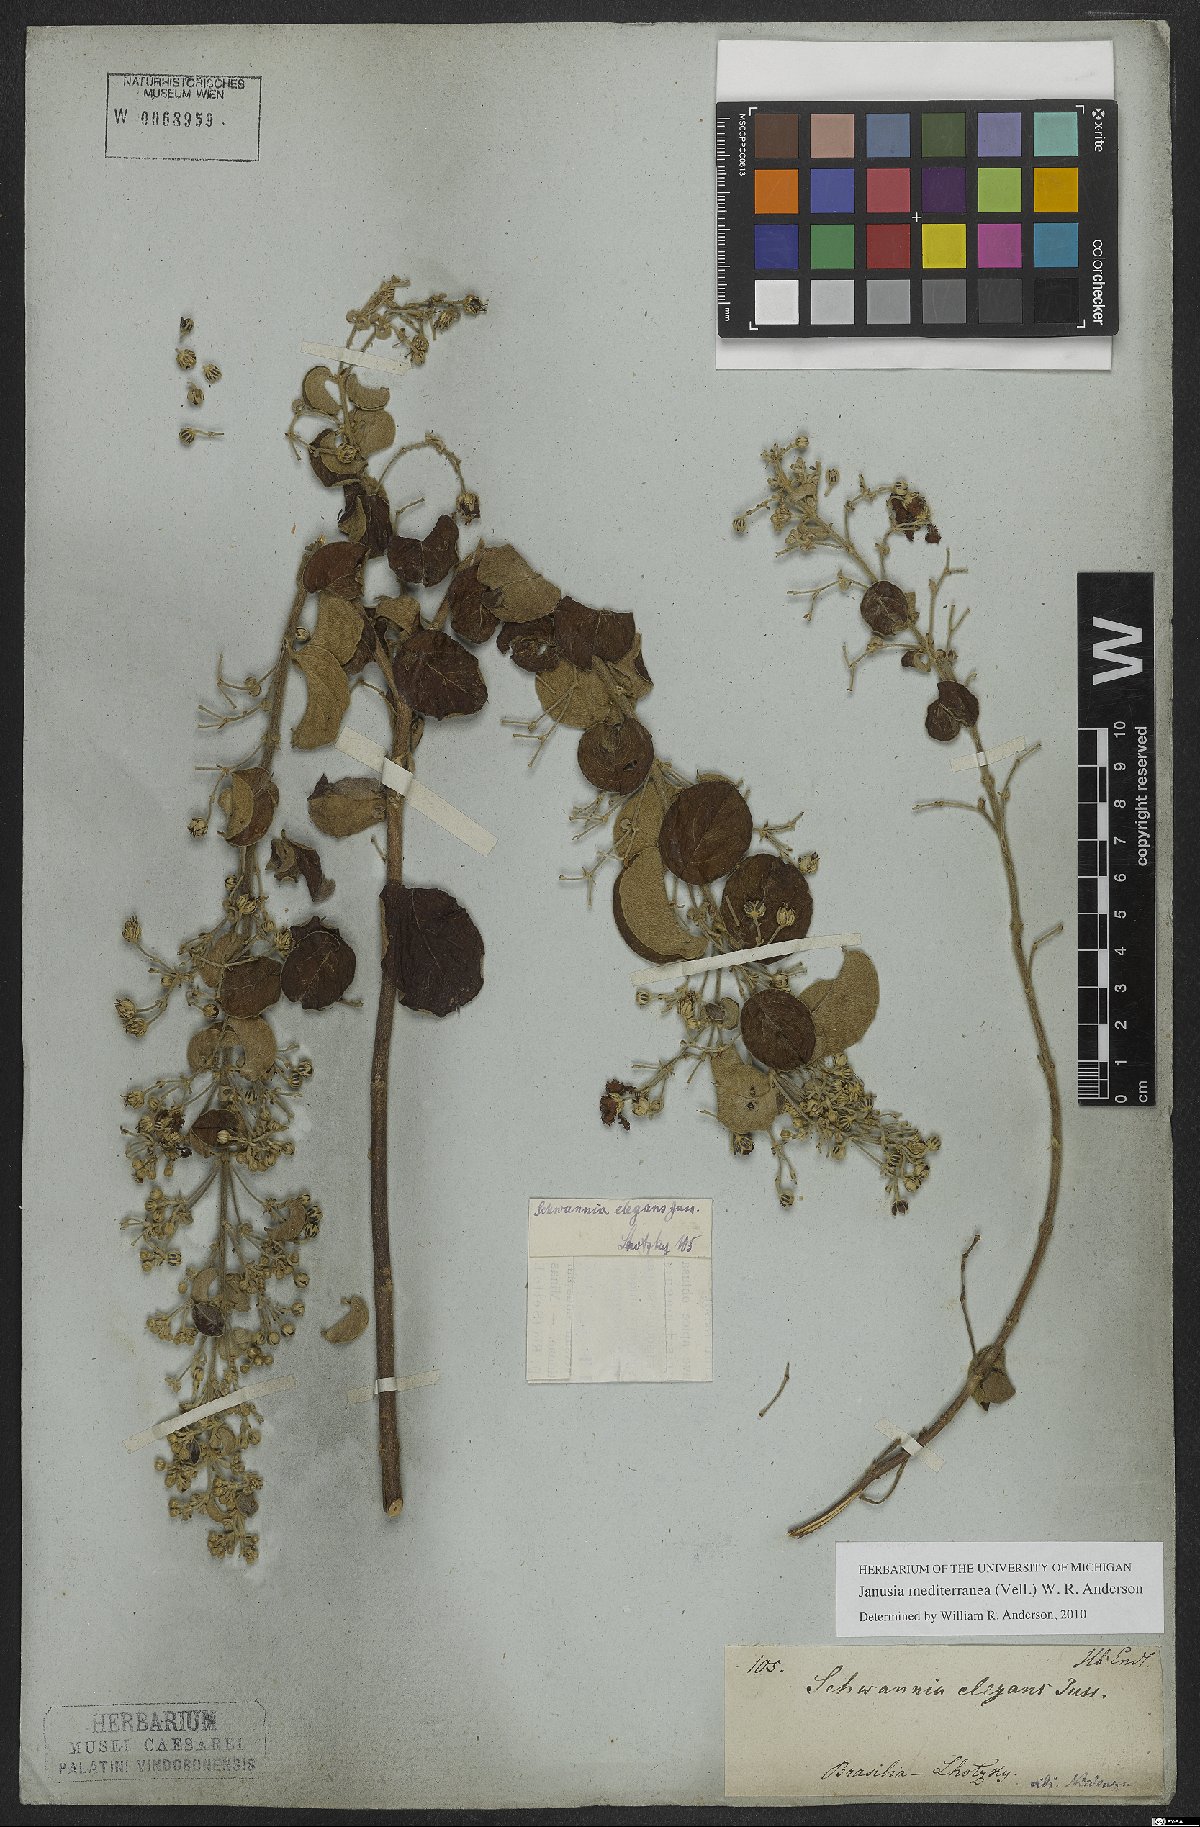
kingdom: Plantae
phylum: Tracheophyta
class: Magnoliopsida
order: Malpighiales
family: Malpighiaceae
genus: Janusia
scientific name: Janusia mediterranea
